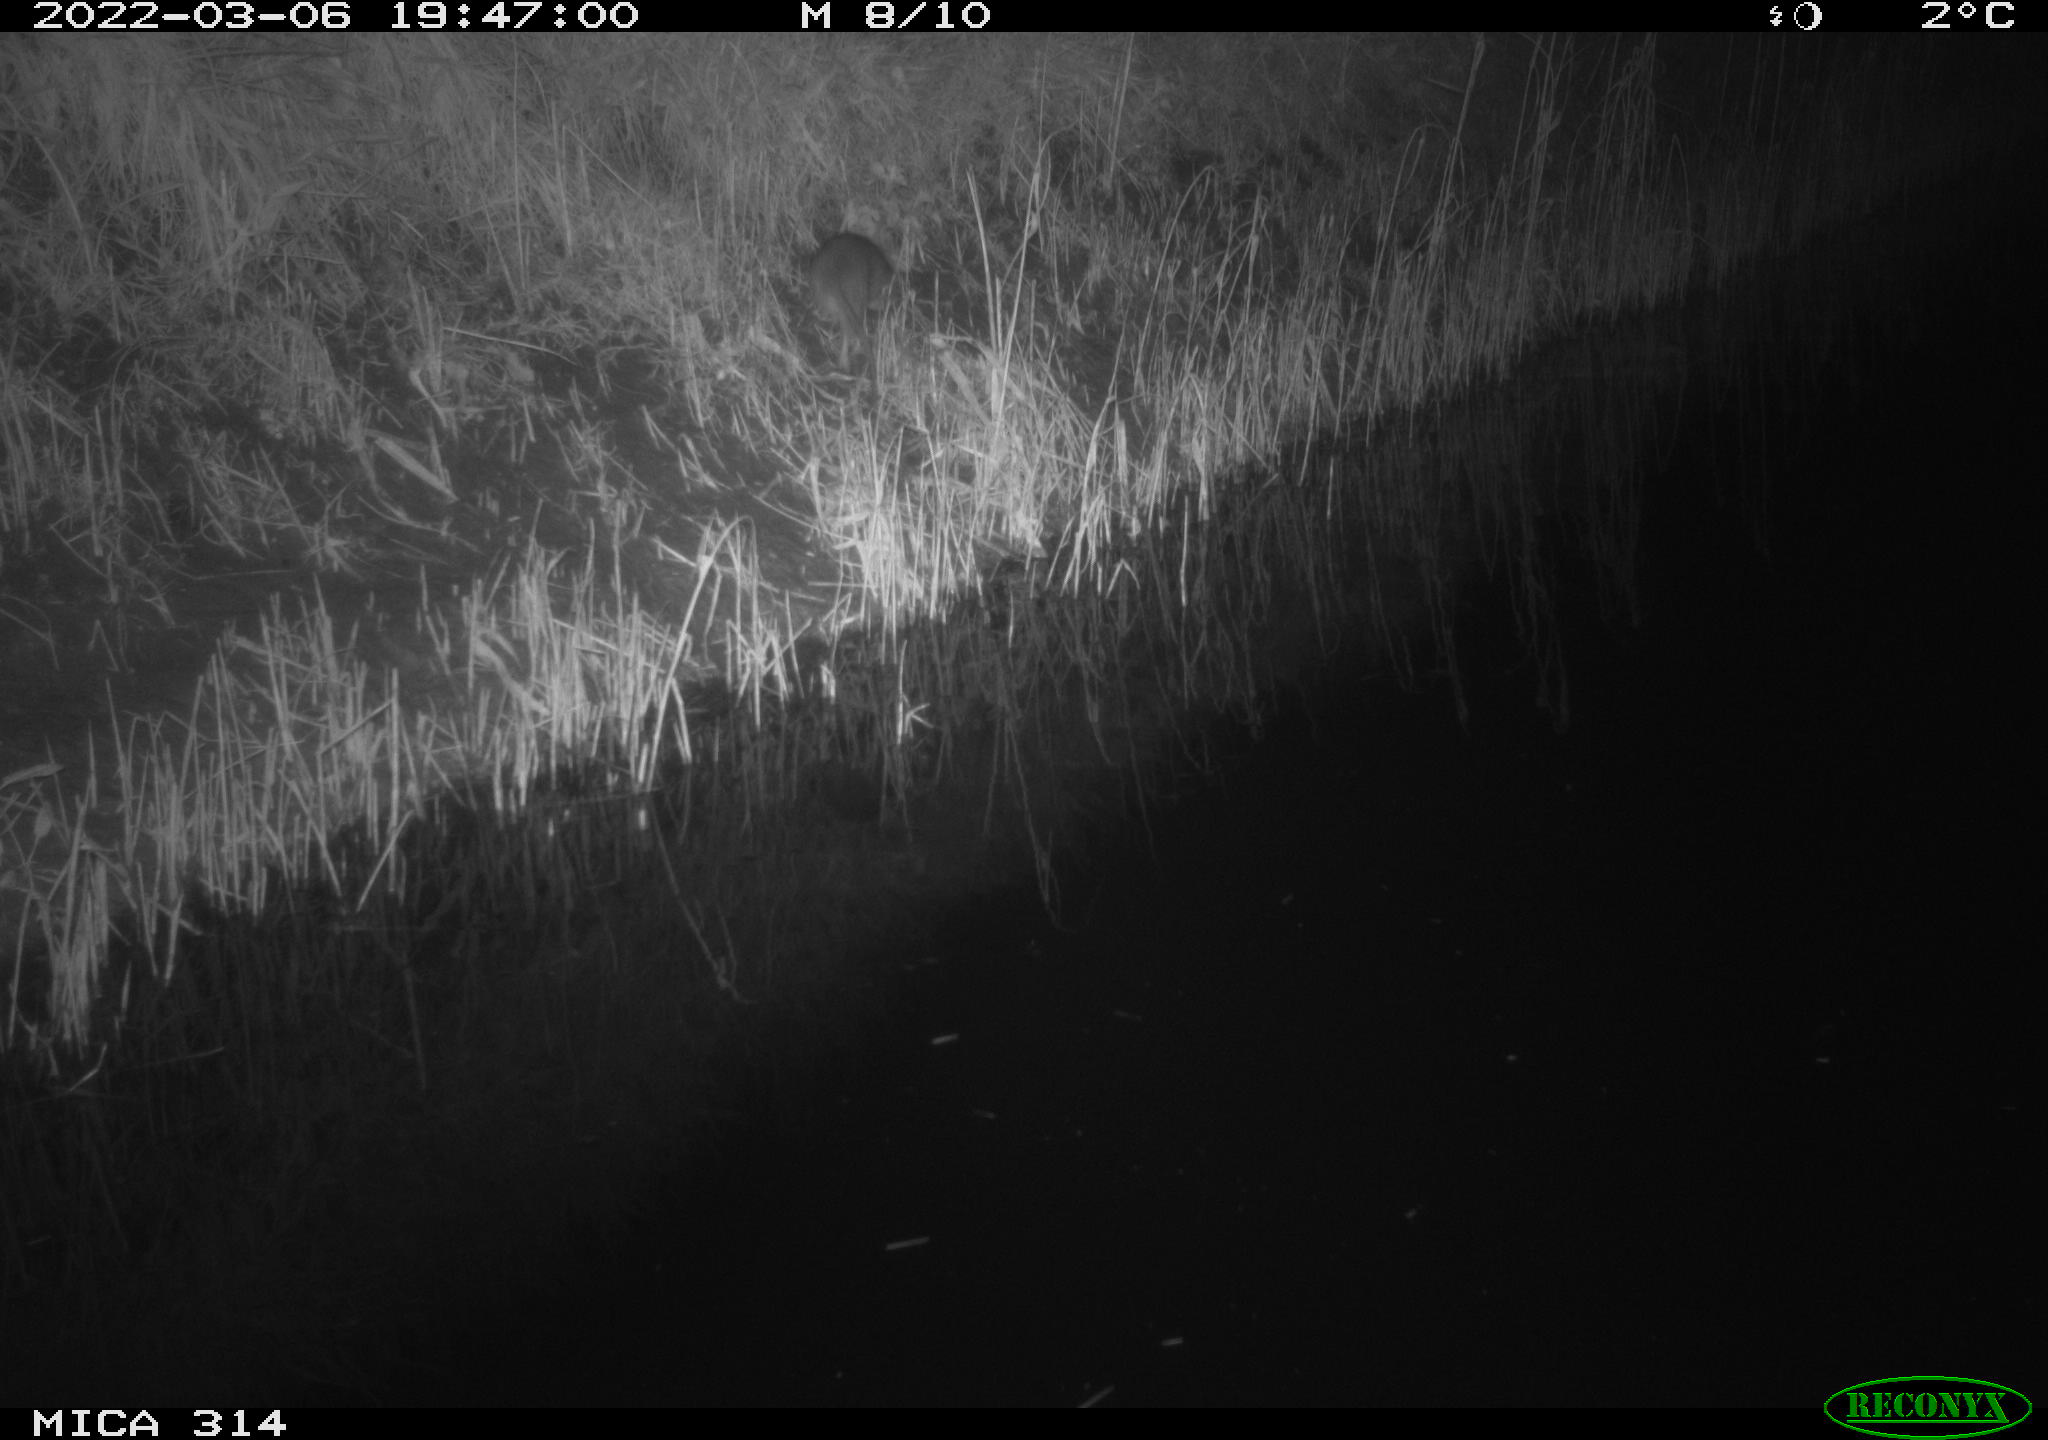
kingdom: Animalia
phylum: Chordata
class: Mammalia
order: Rodentia
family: Muridae
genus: Rattus
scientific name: Rattus norvegicus
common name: Brown rat
